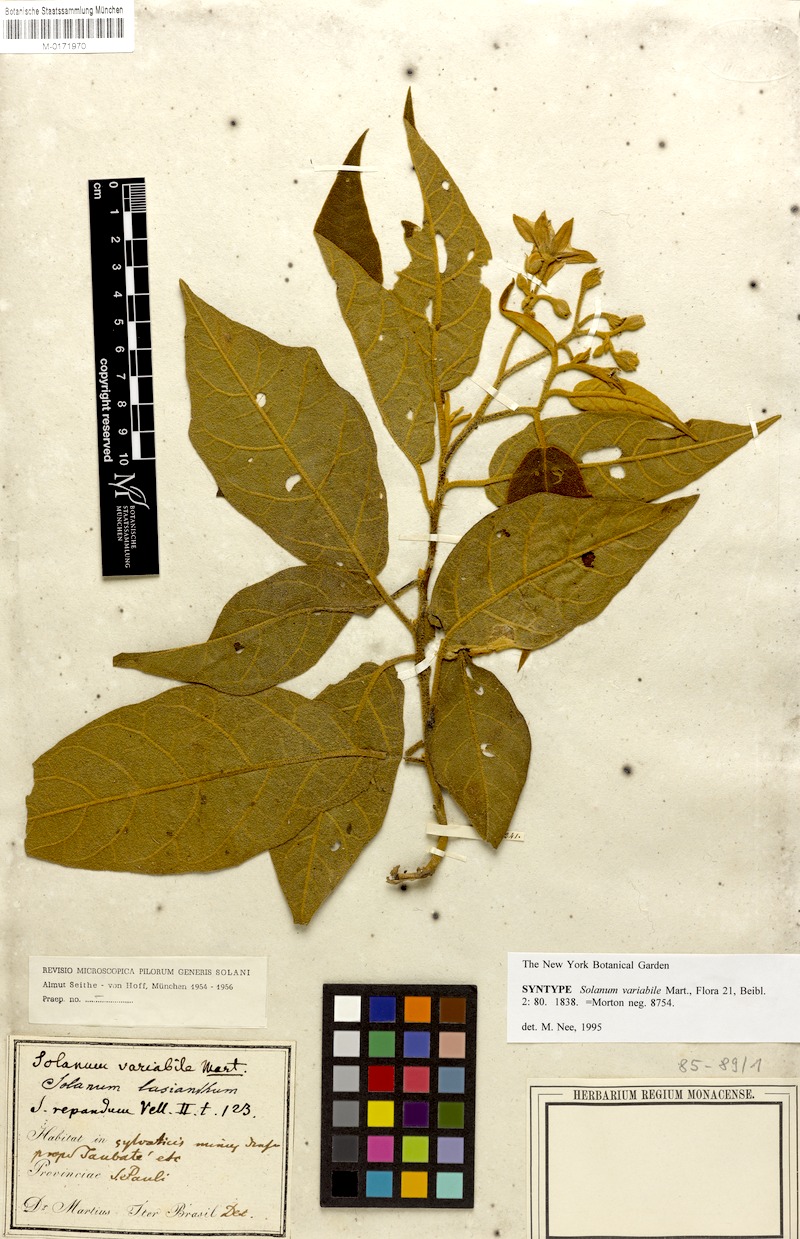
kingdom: Plantae
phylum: Tracheophyta
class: Magnoliopsida
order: Solanales
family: Solanaceae
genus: Solanum
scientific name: Solanum variabile
